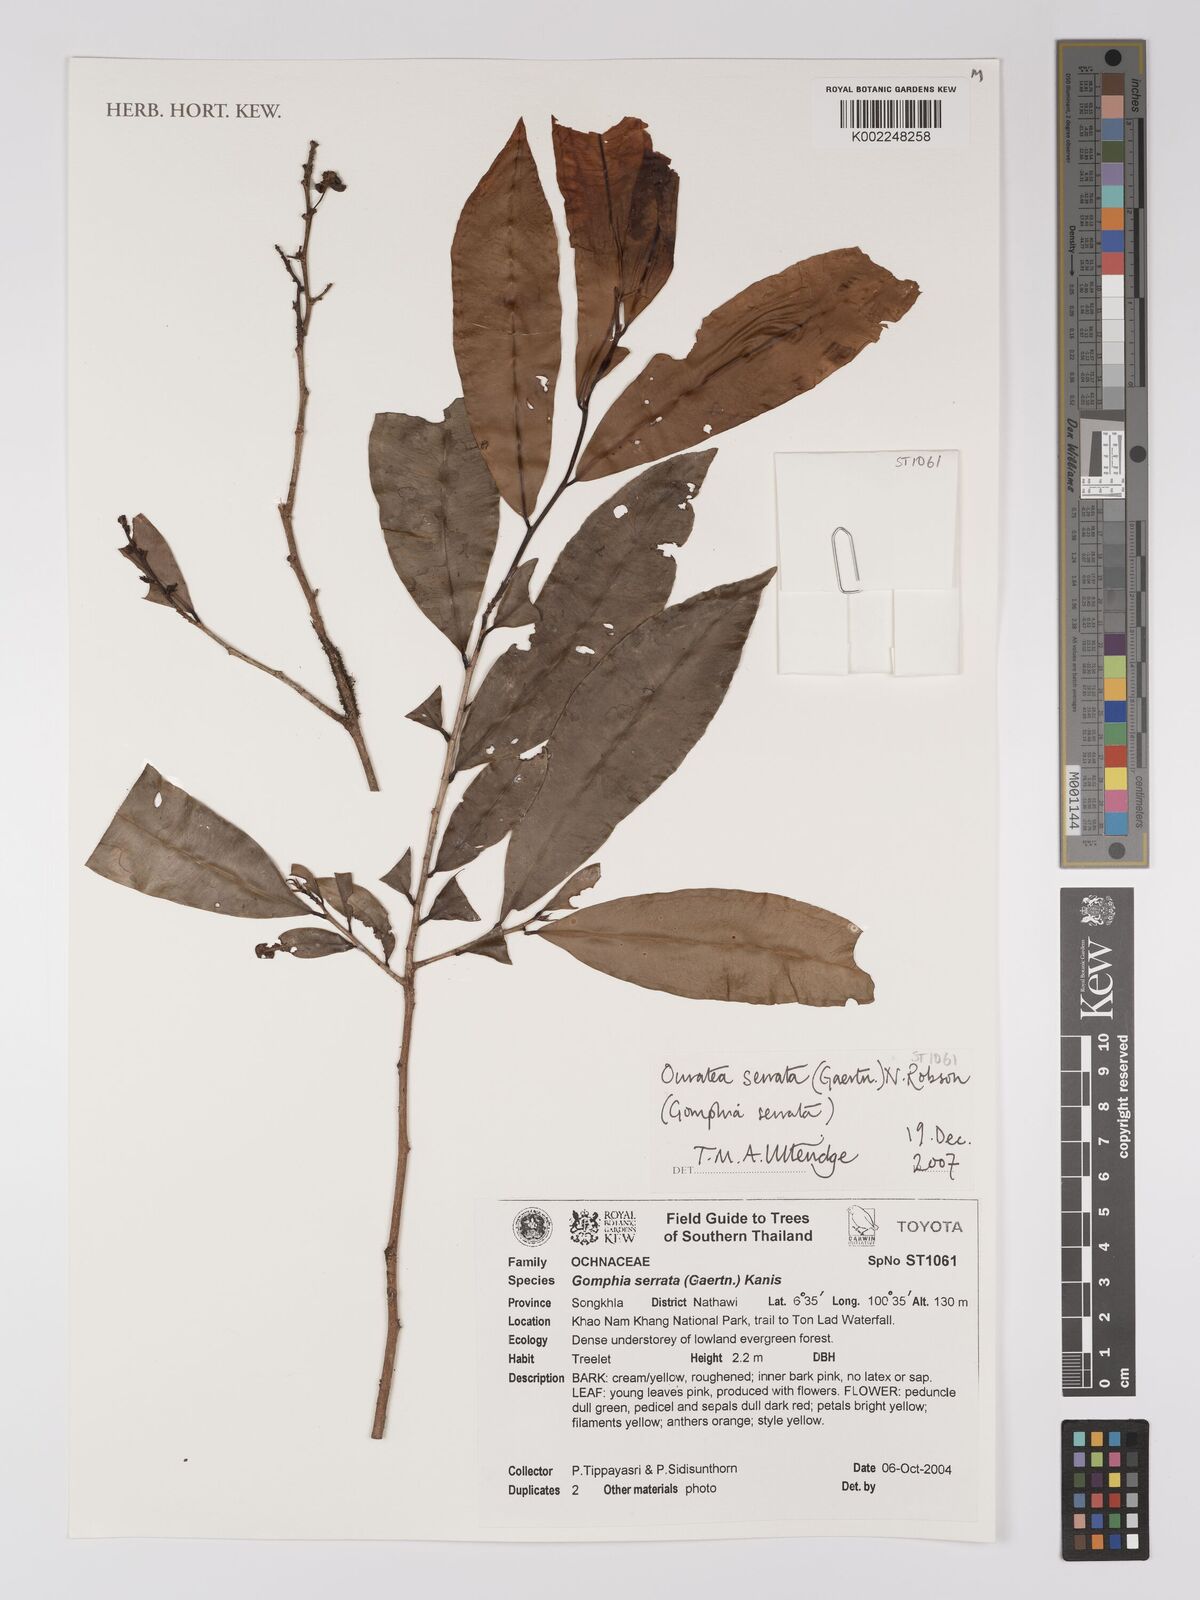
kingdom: Plantae
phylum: Tracheophyta
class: Magnoliopsida
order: Malpighiales
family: Ochnaceae
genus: Gomphia
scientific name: Gomphia serrata
